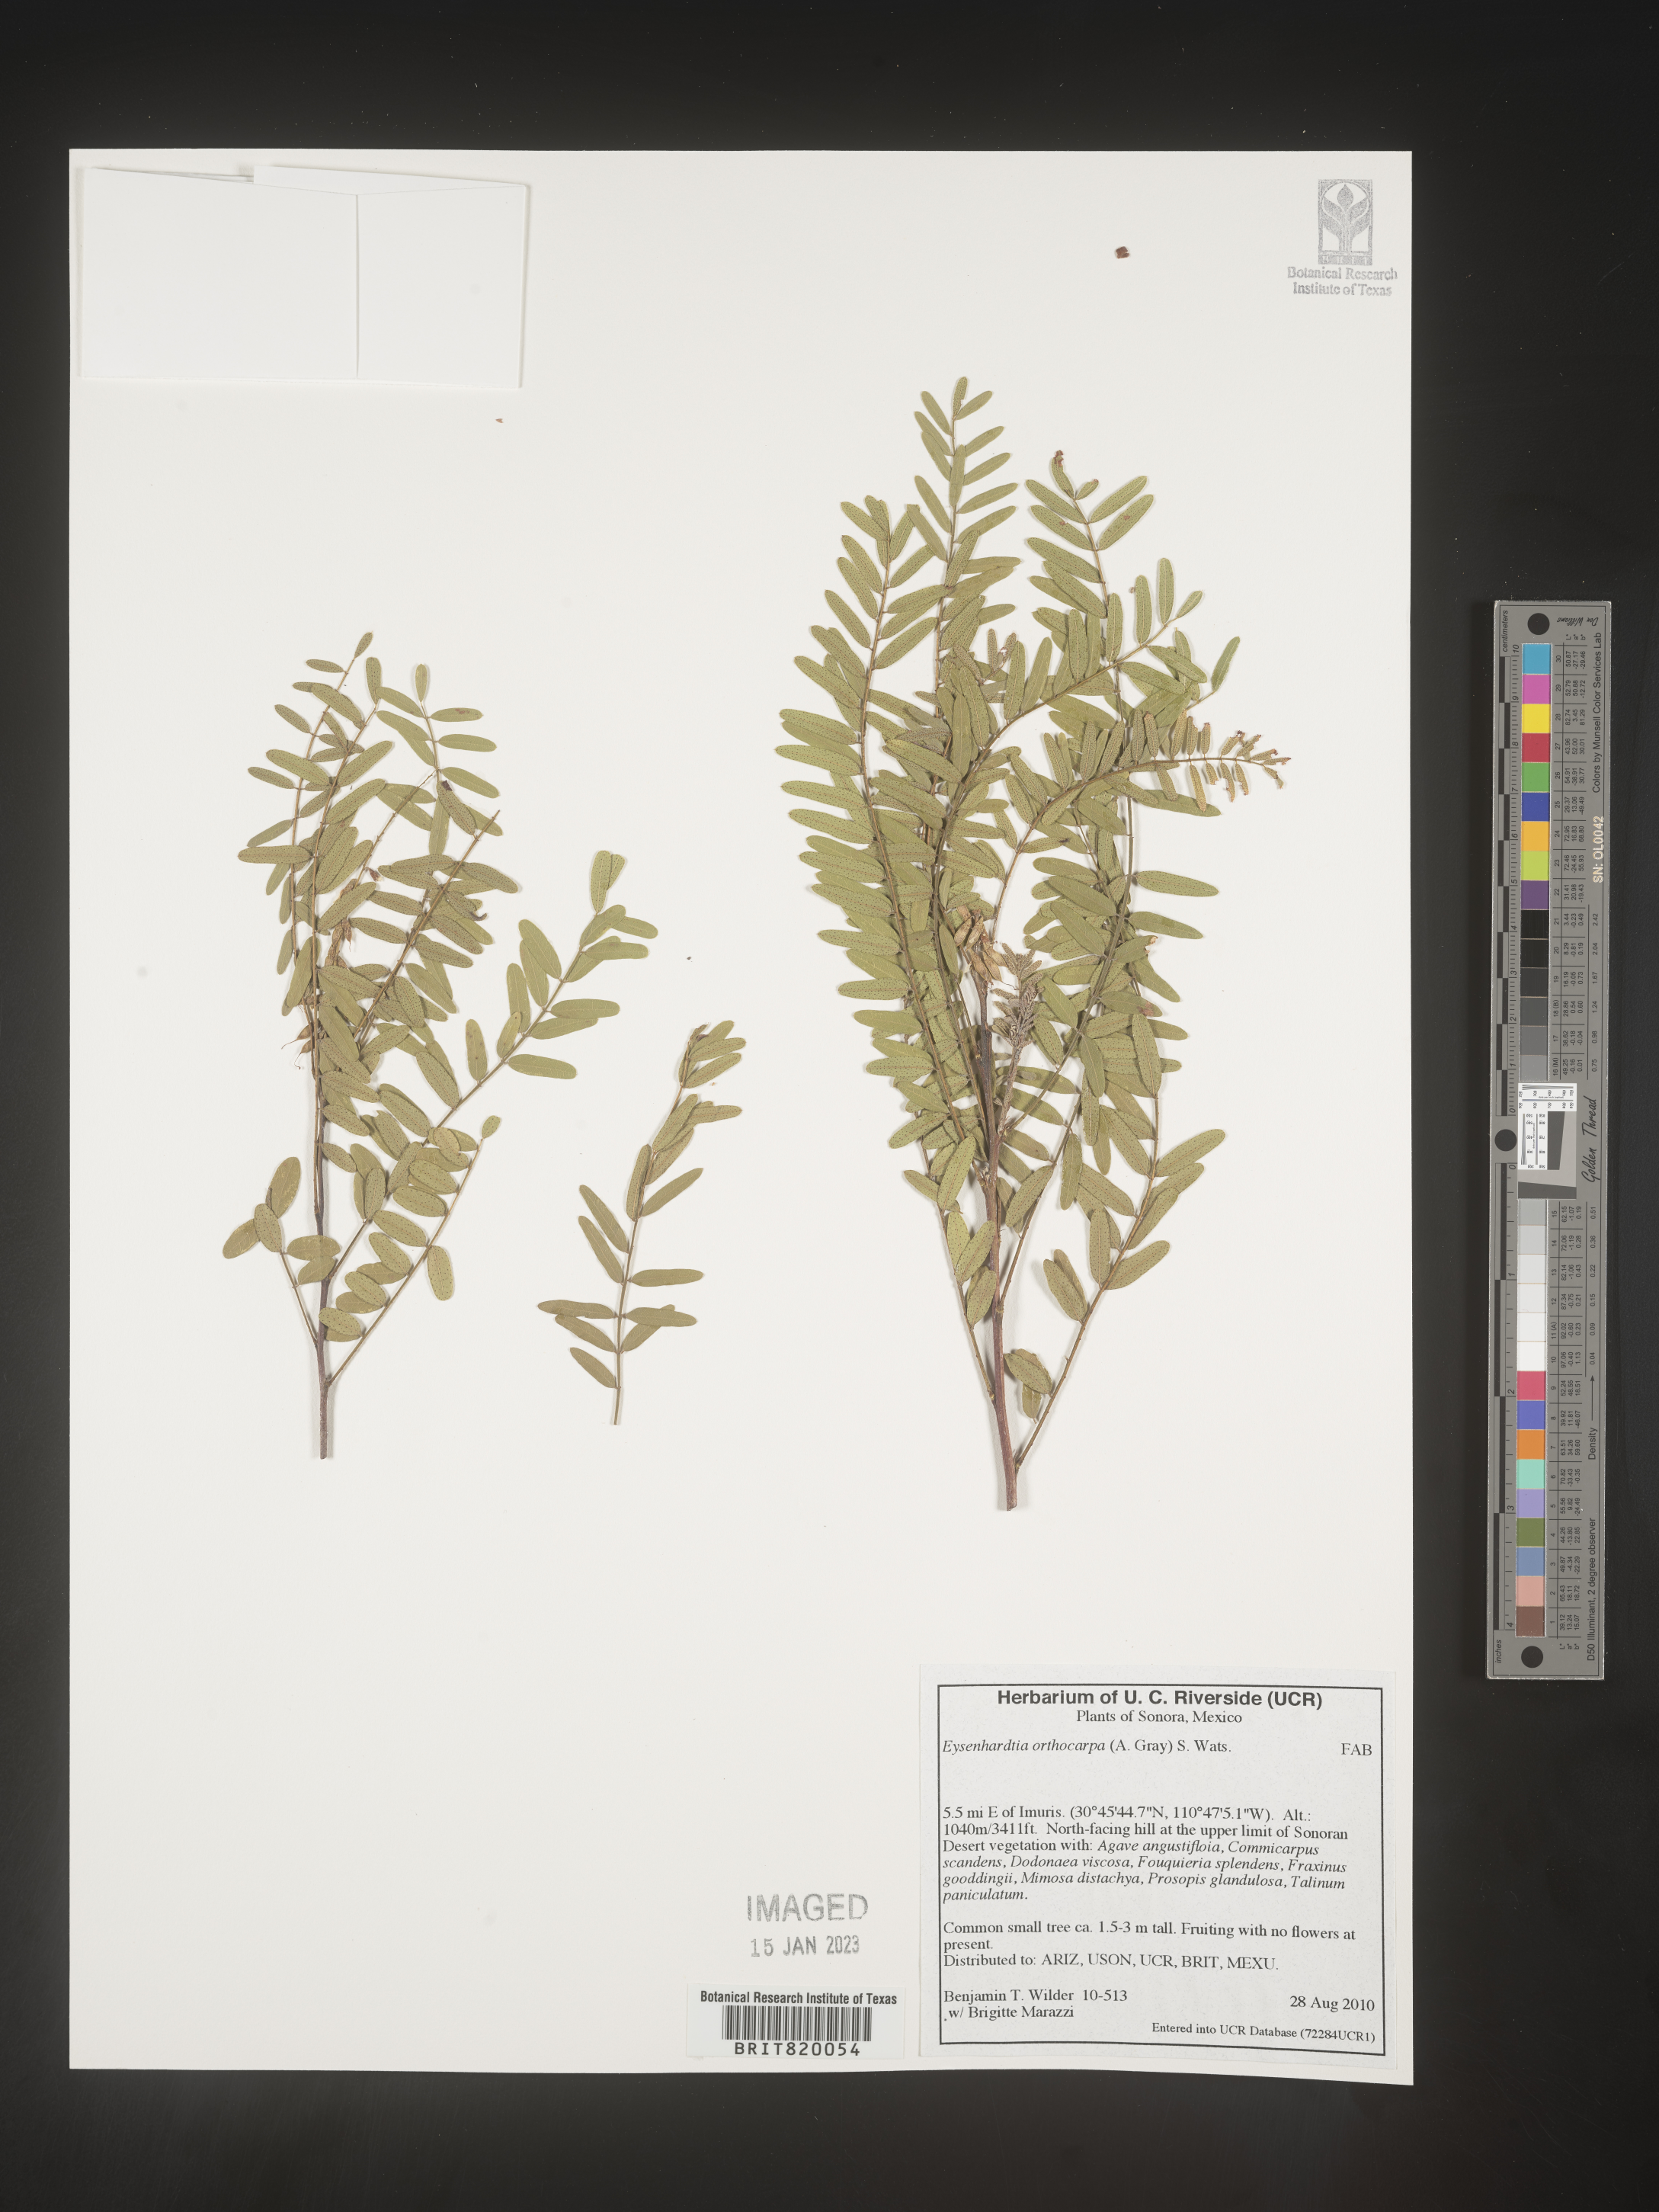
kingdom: Plantae
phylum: Tracheophyta
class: Magnoliopsida
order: Fabales
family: Fabaceae
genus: Eysenhardtia
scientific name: Eysenhardtia
